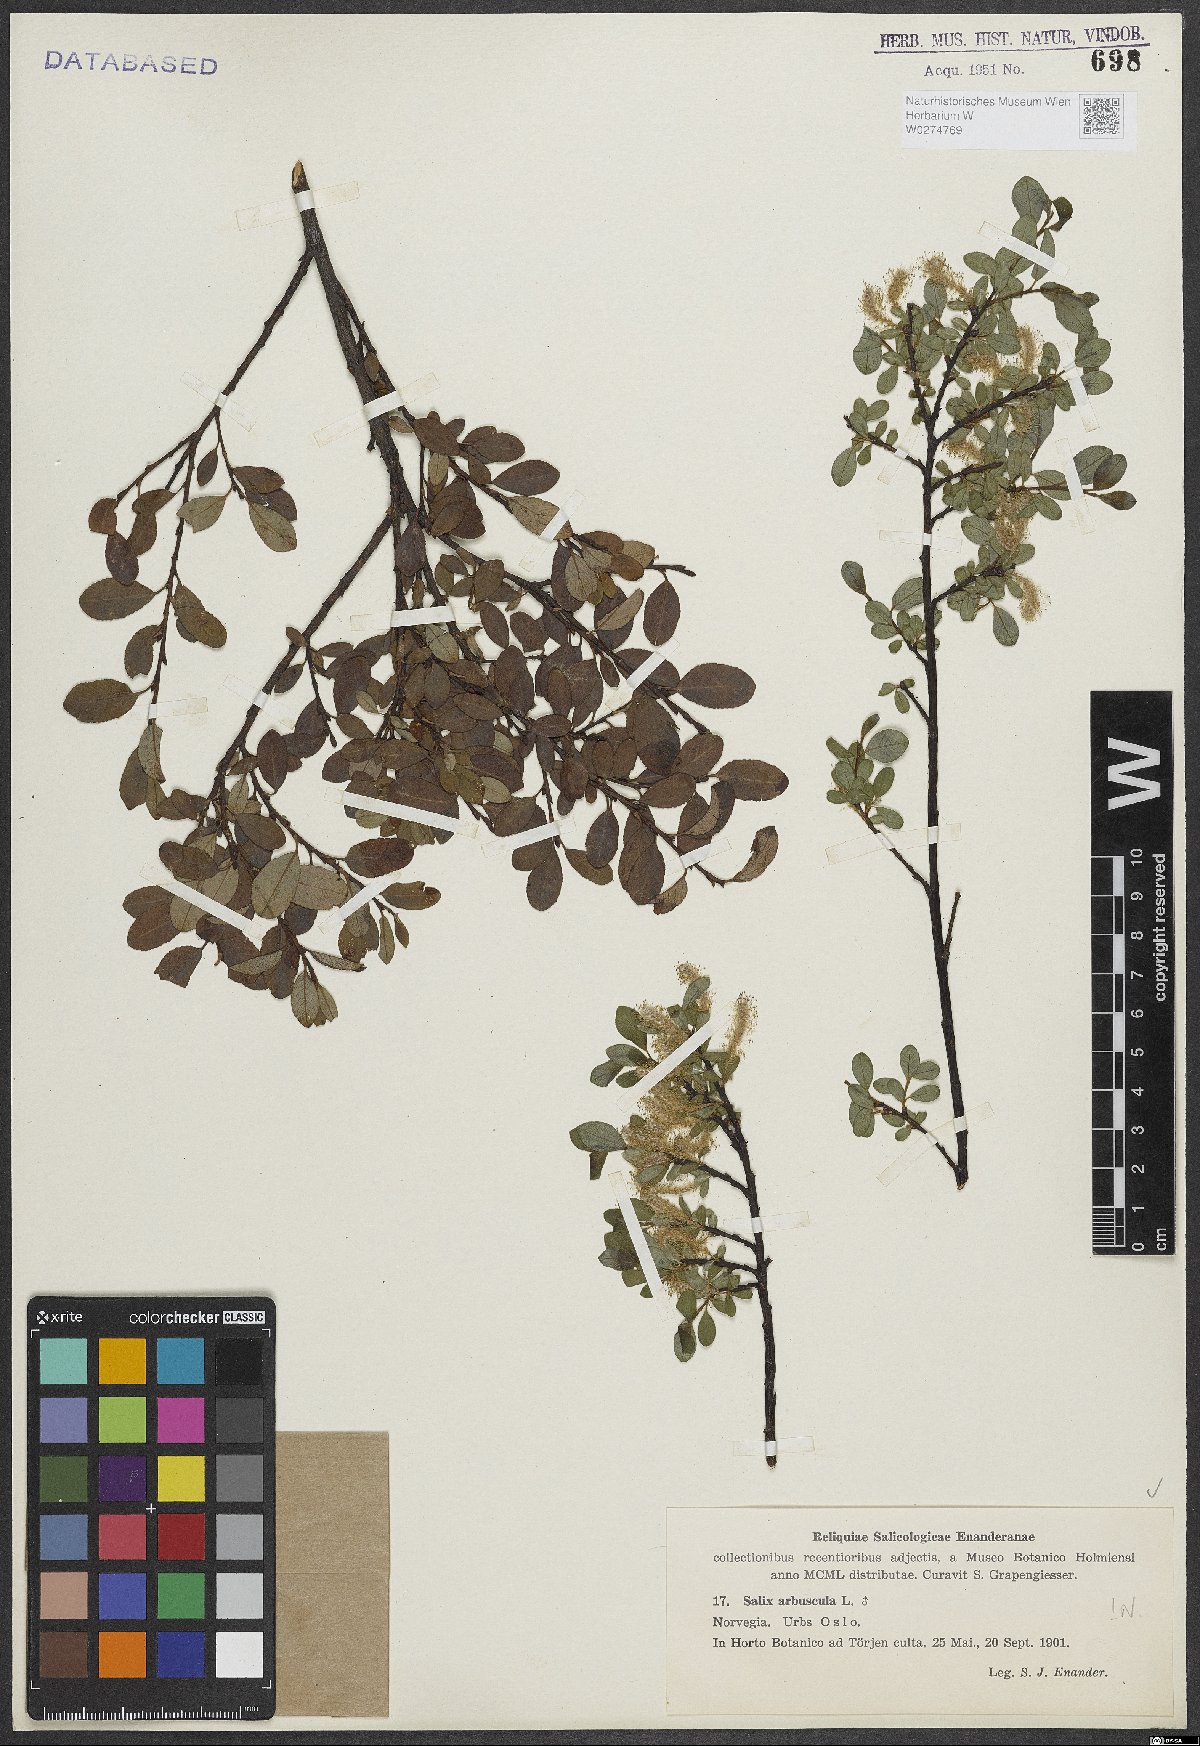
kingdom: Plantae
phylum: Tracheophyta
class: Magnoliopsida
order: Malpighiales
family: Salicaceae
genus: Salix
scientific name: Salix arbuscula
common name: Mountain willow
